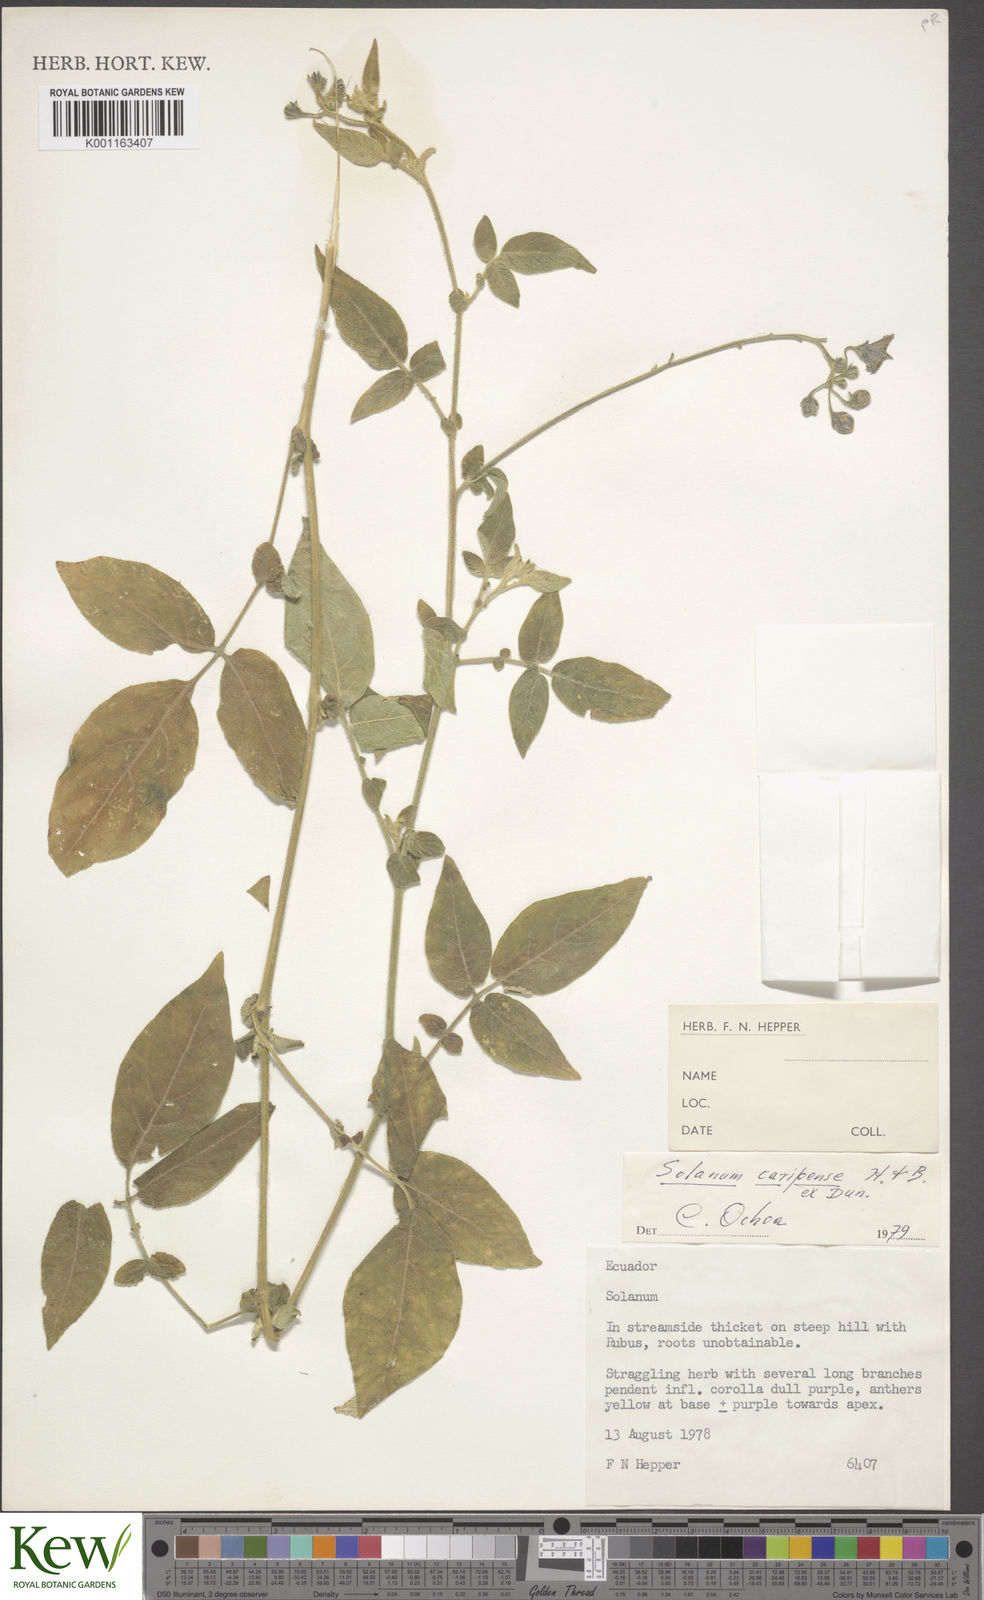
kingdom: Plantae
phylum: Tracheophyta
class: Magnoliopsida
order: Solanales
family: Solanaceae
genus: Solanum
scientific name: Solanum caripense
